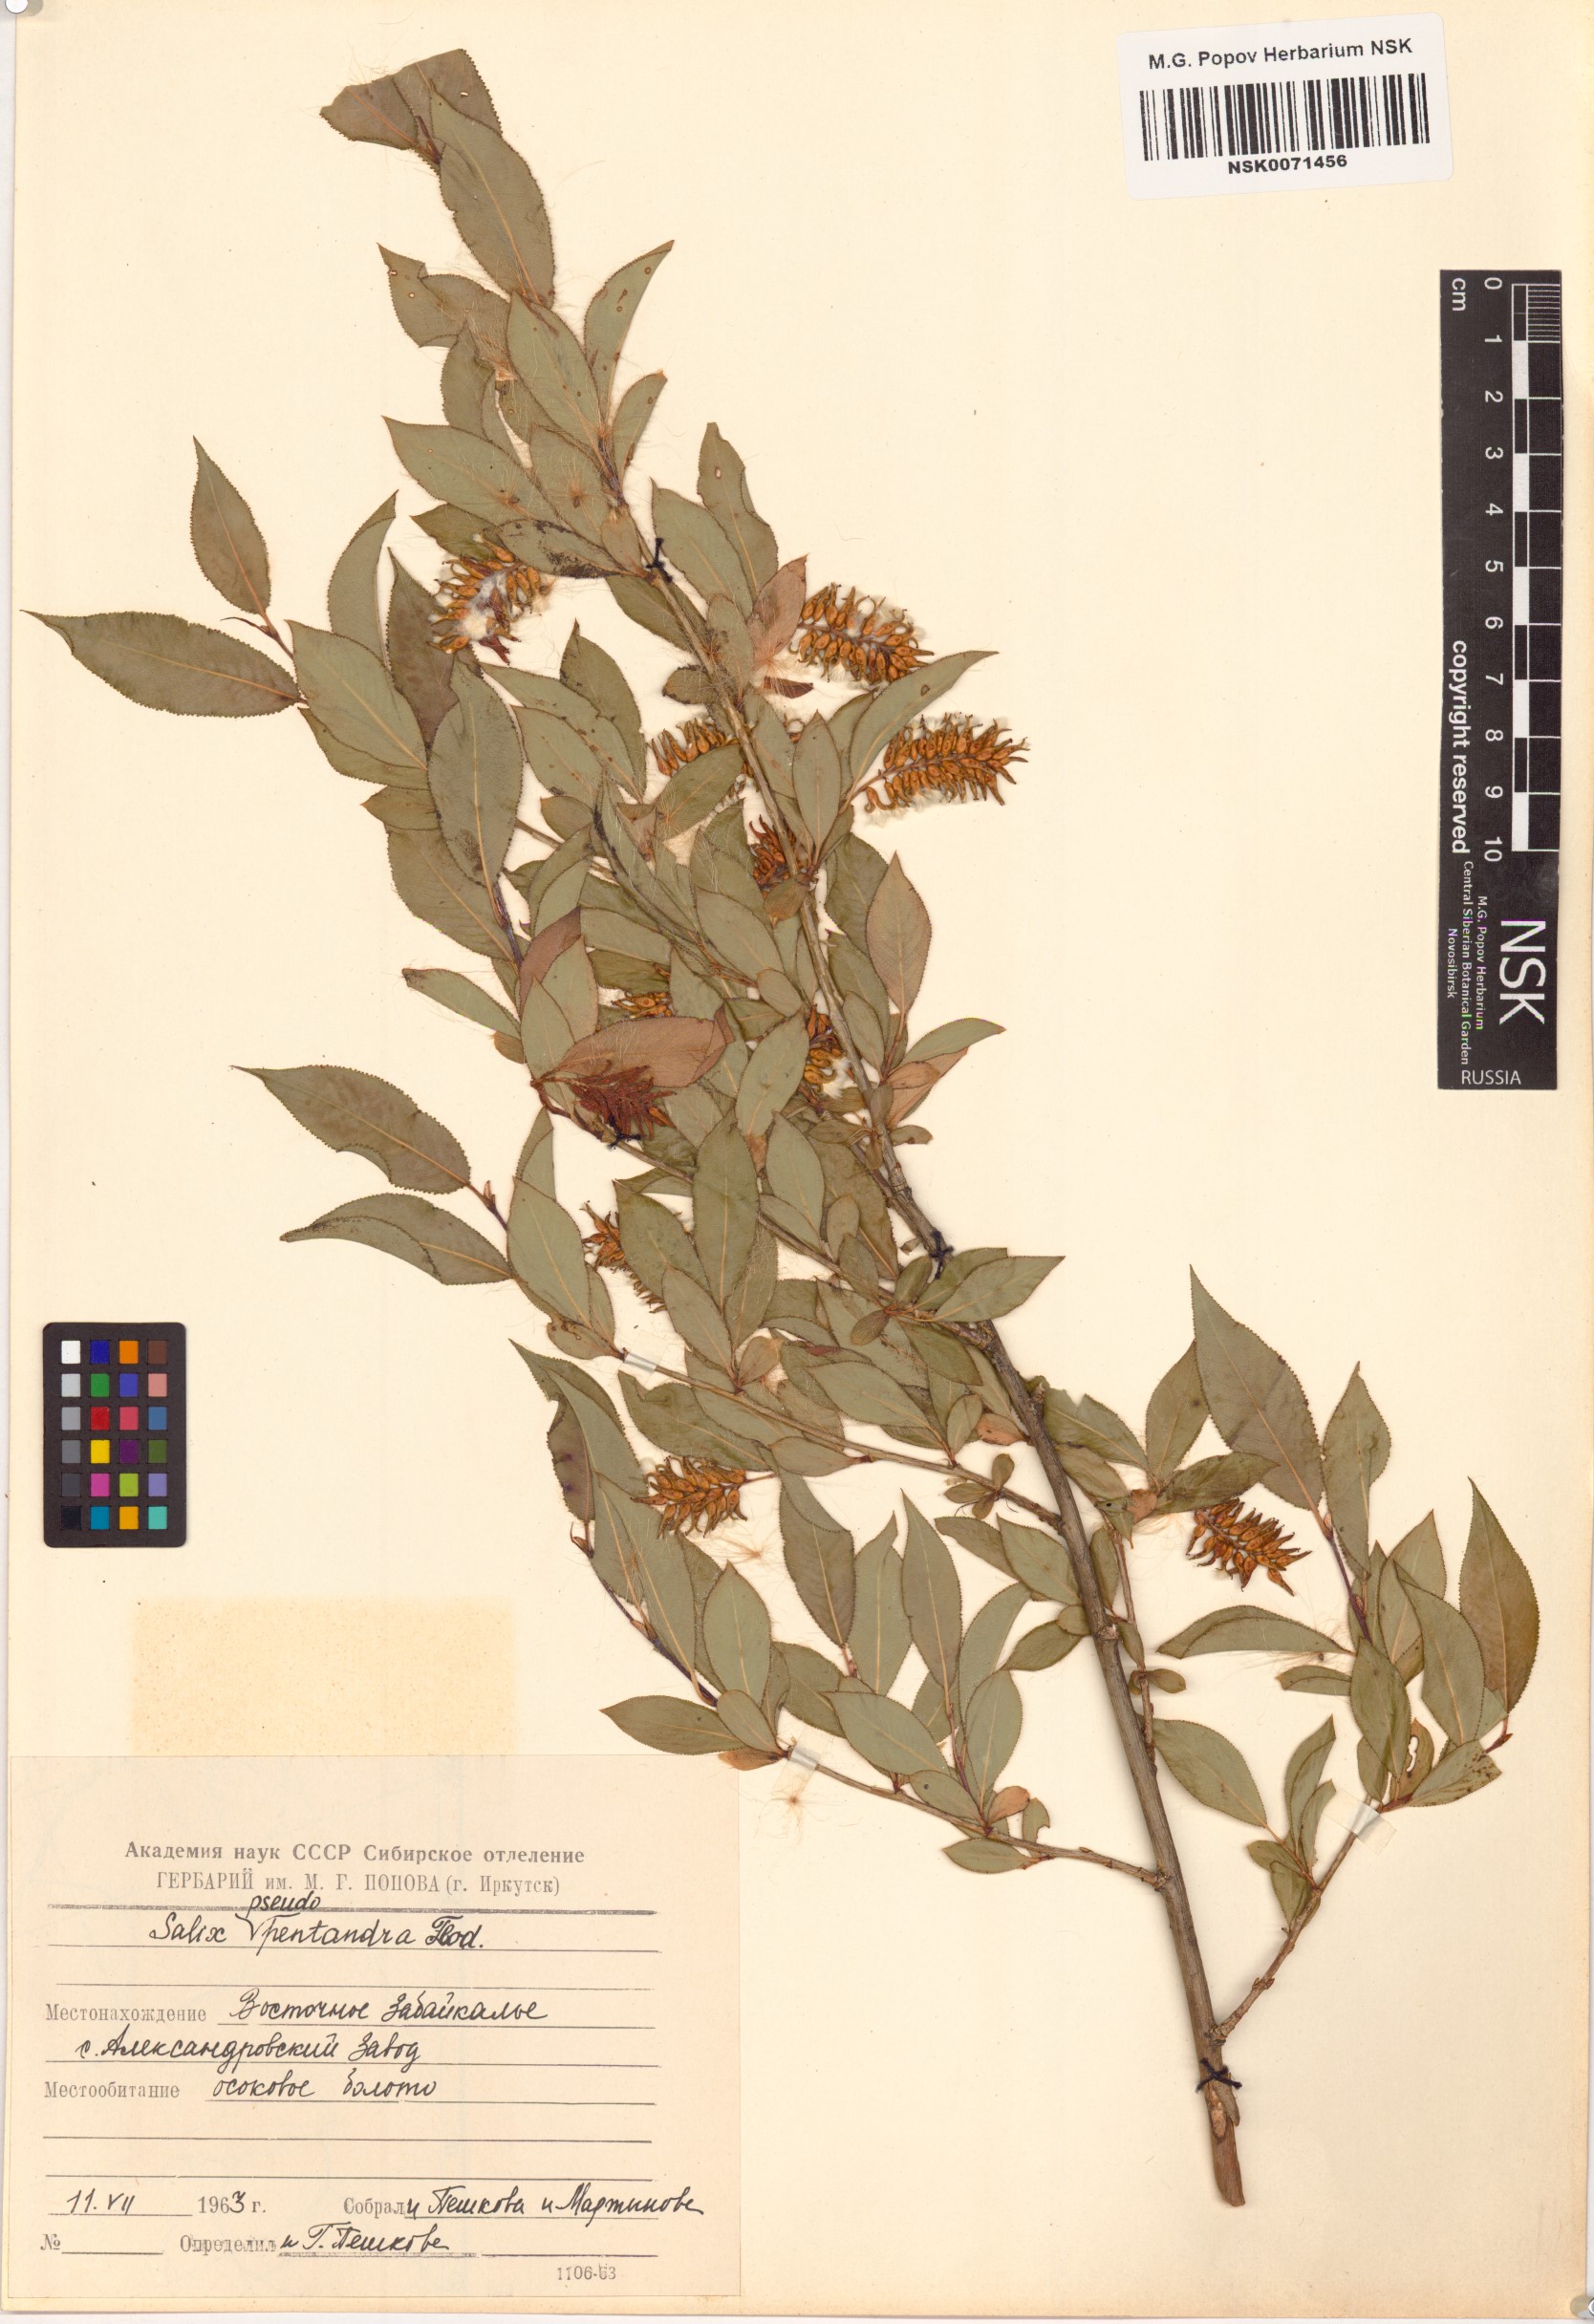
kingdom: Plantae
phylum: Tracheophyta
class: Magnoliopsida
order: Malpighiales
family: Salicaceae
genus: Salix
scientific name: Salix pseudopentandra
